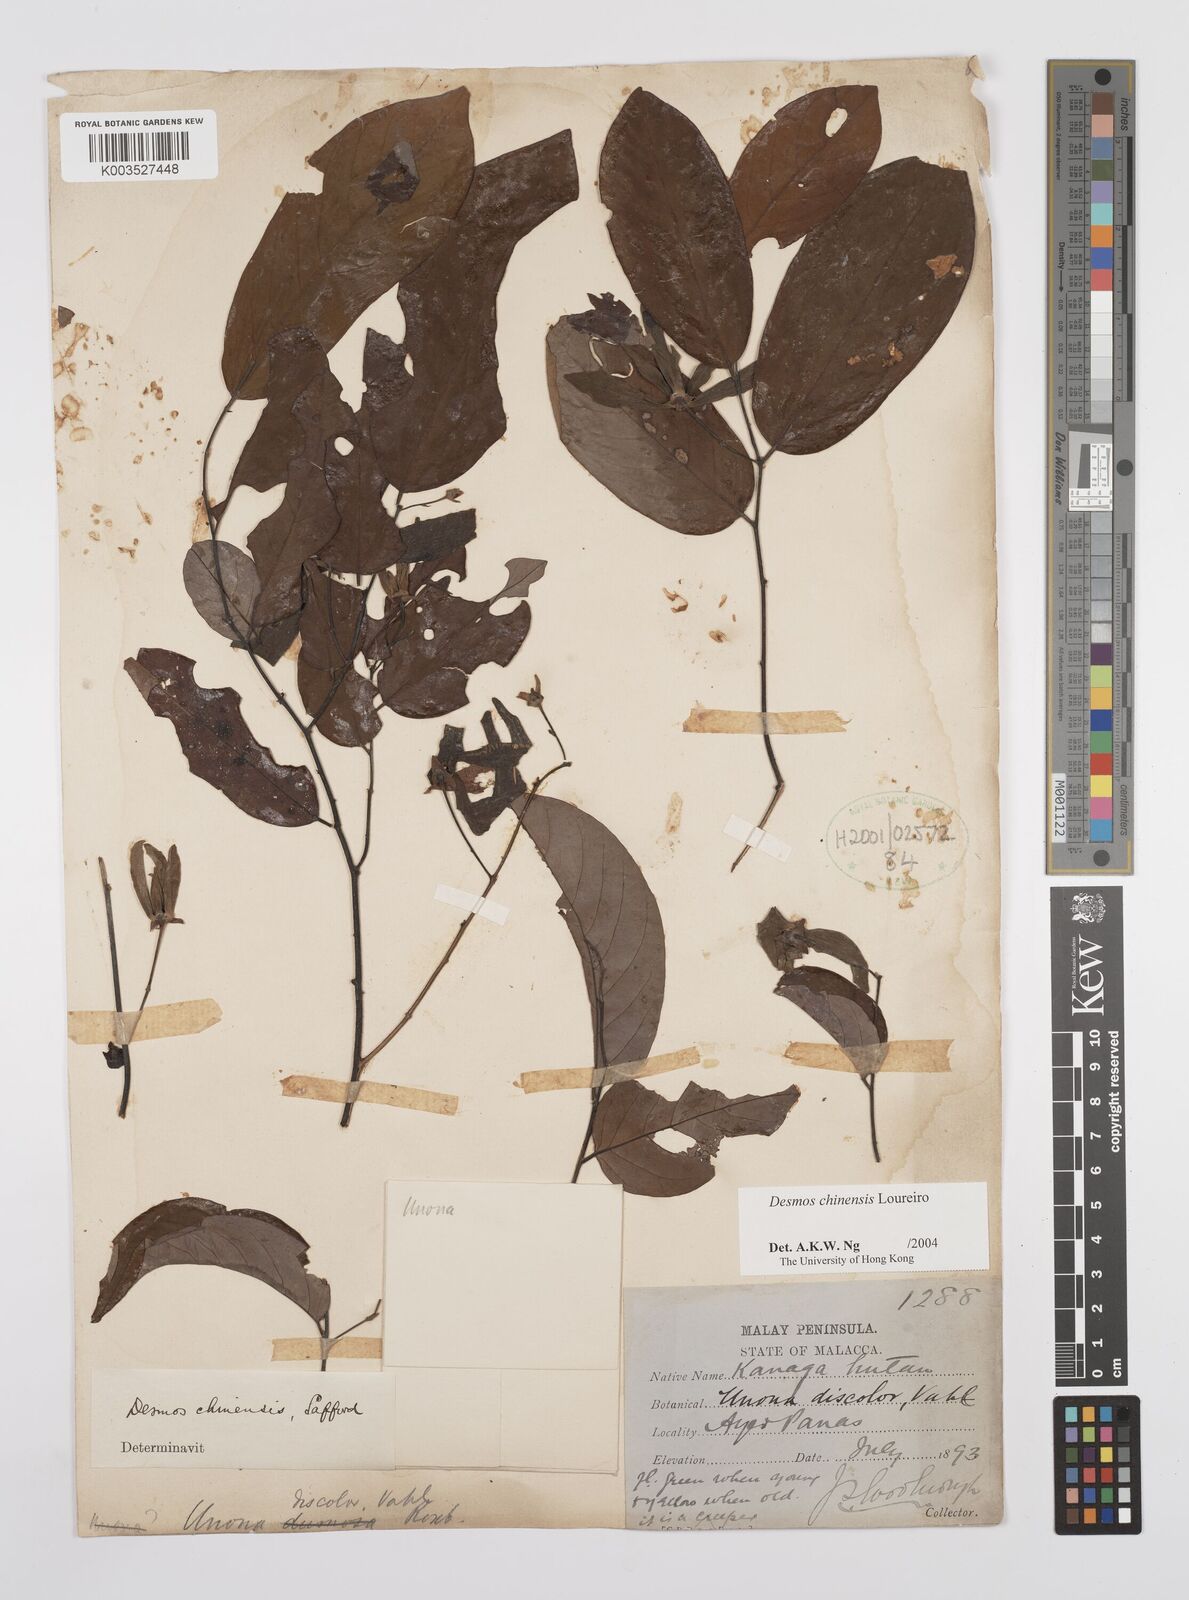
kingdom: Plantae
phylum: Tracheophyta
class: Magnoliopsida
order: Magnoliales
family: Annonaceae
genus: Desmos
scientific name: Desmos
